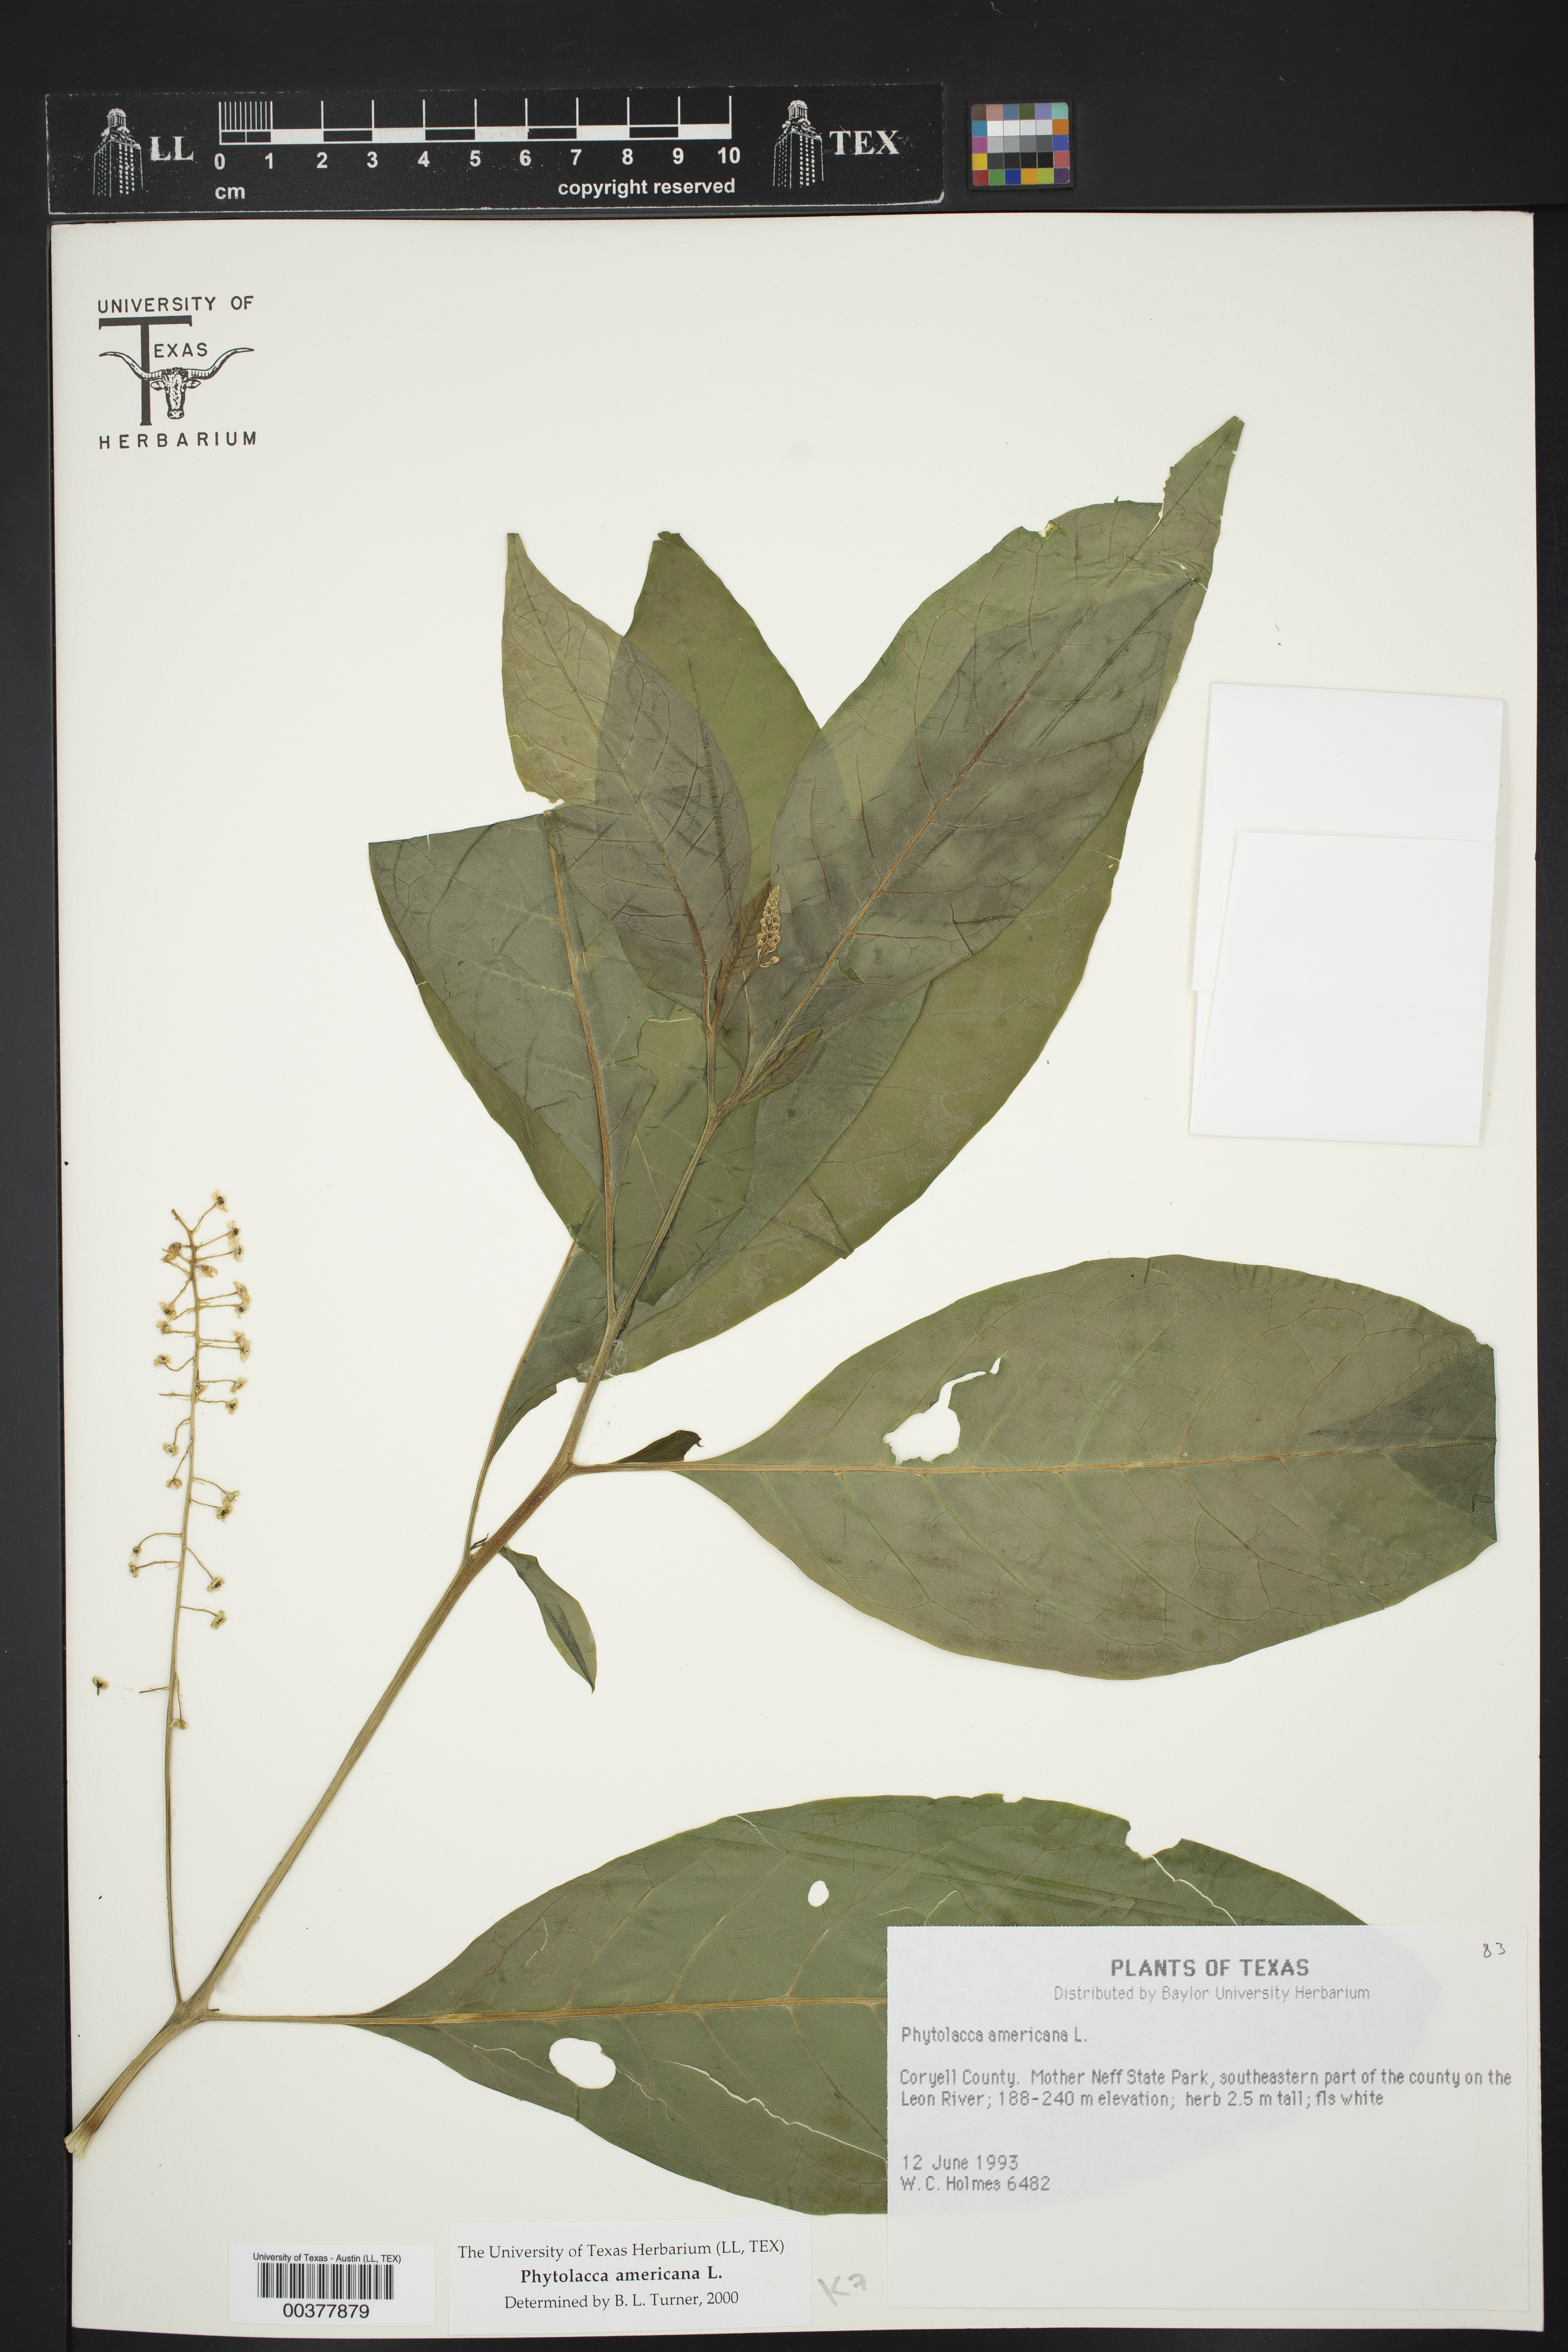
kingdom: Plantae
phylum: Tracheophyta
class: Magnoliopsida
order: Caryophyllales
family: Phytolaccaceae
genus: Phytolacca
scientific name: Phytolacca americana
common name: American pokeweed
